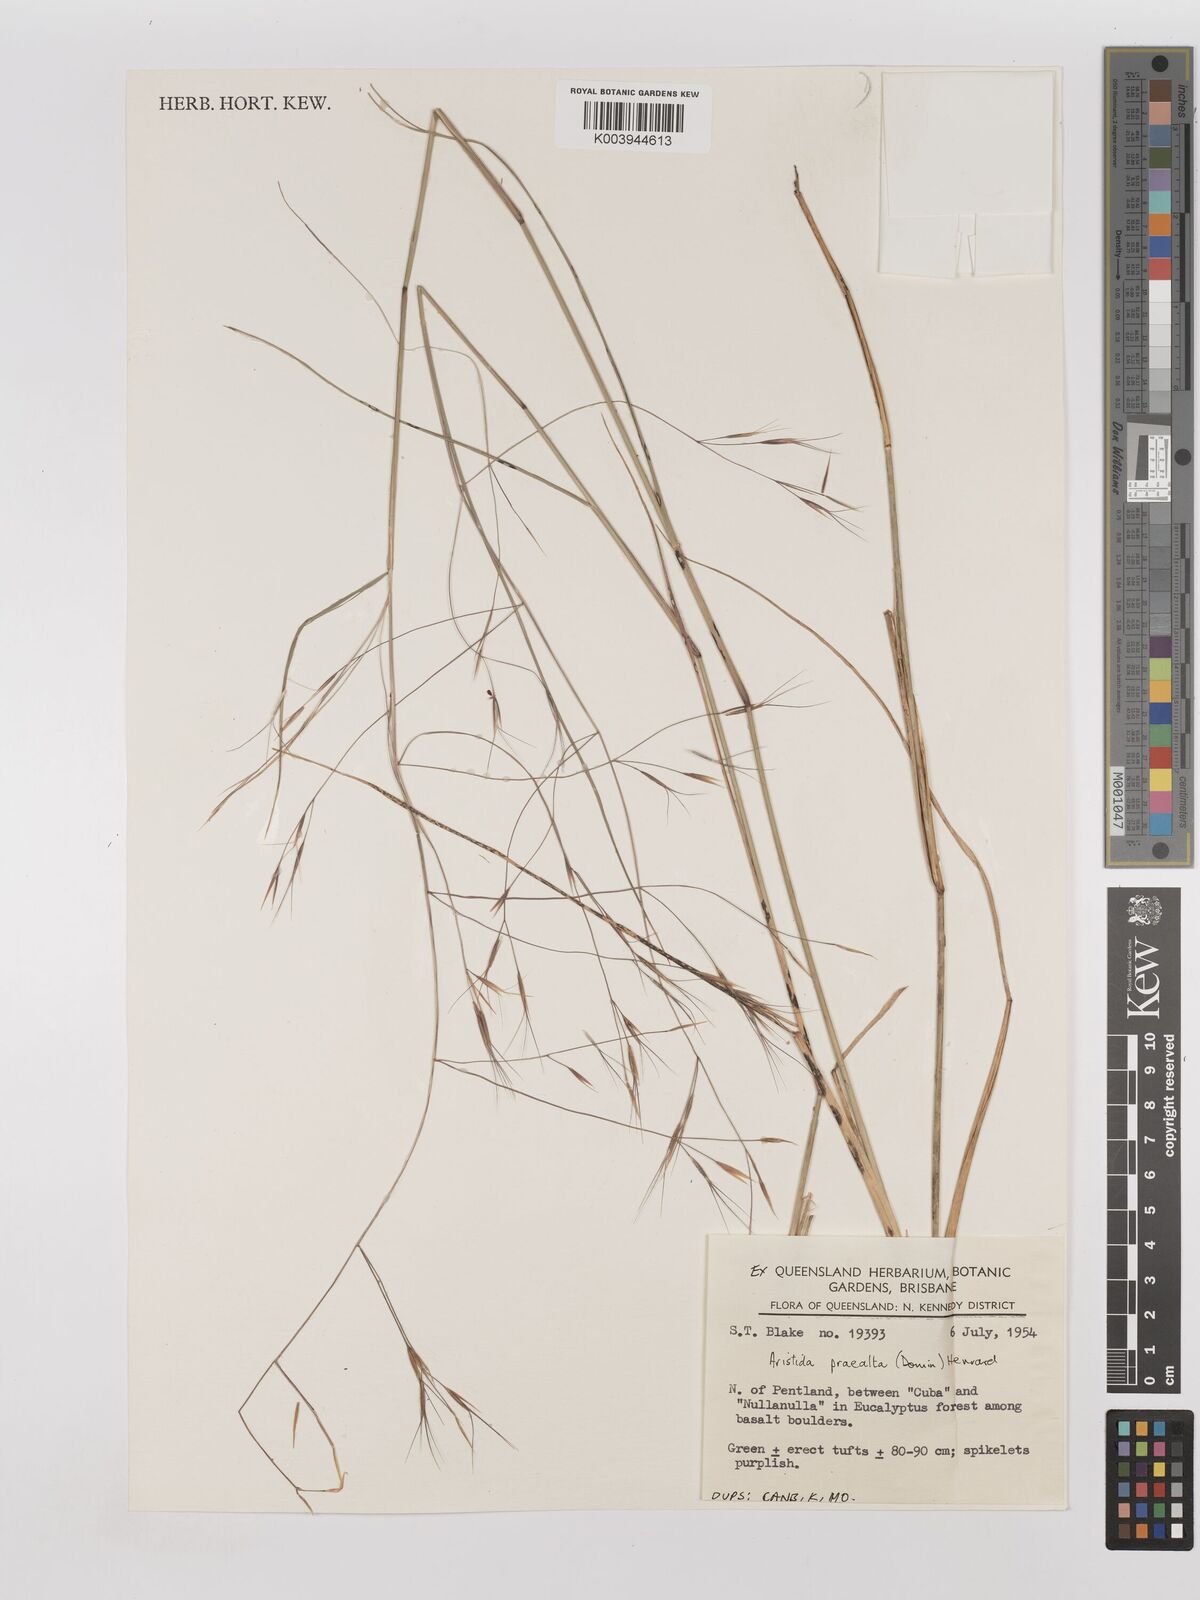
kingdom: Plantae
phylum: Tracheophyta
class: Liliopsida
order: Poales
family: Poaceae
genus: Aristida
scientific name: Aristida calycina
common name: Dark wire grass
